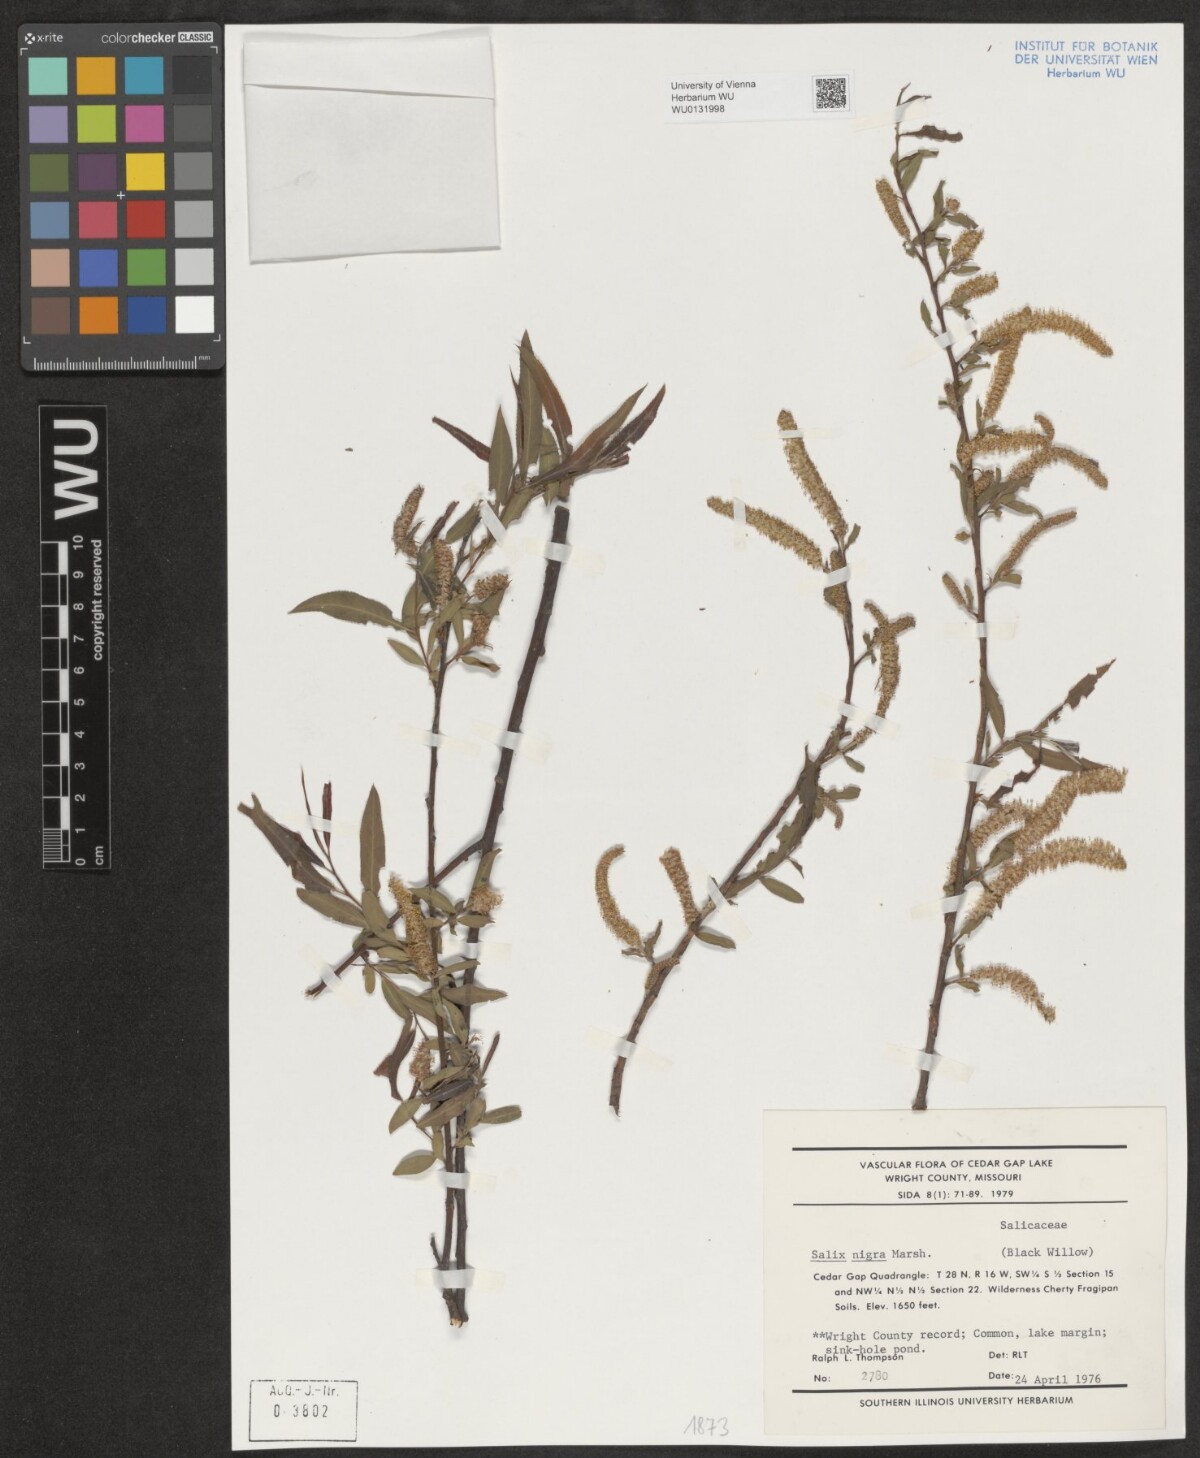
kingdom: Plantae
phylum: Tracheophyta
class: Magnoliopsida
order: Malpighiales
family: Salicaceae
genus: Salix
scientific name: Salix nigra
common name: Black willow
